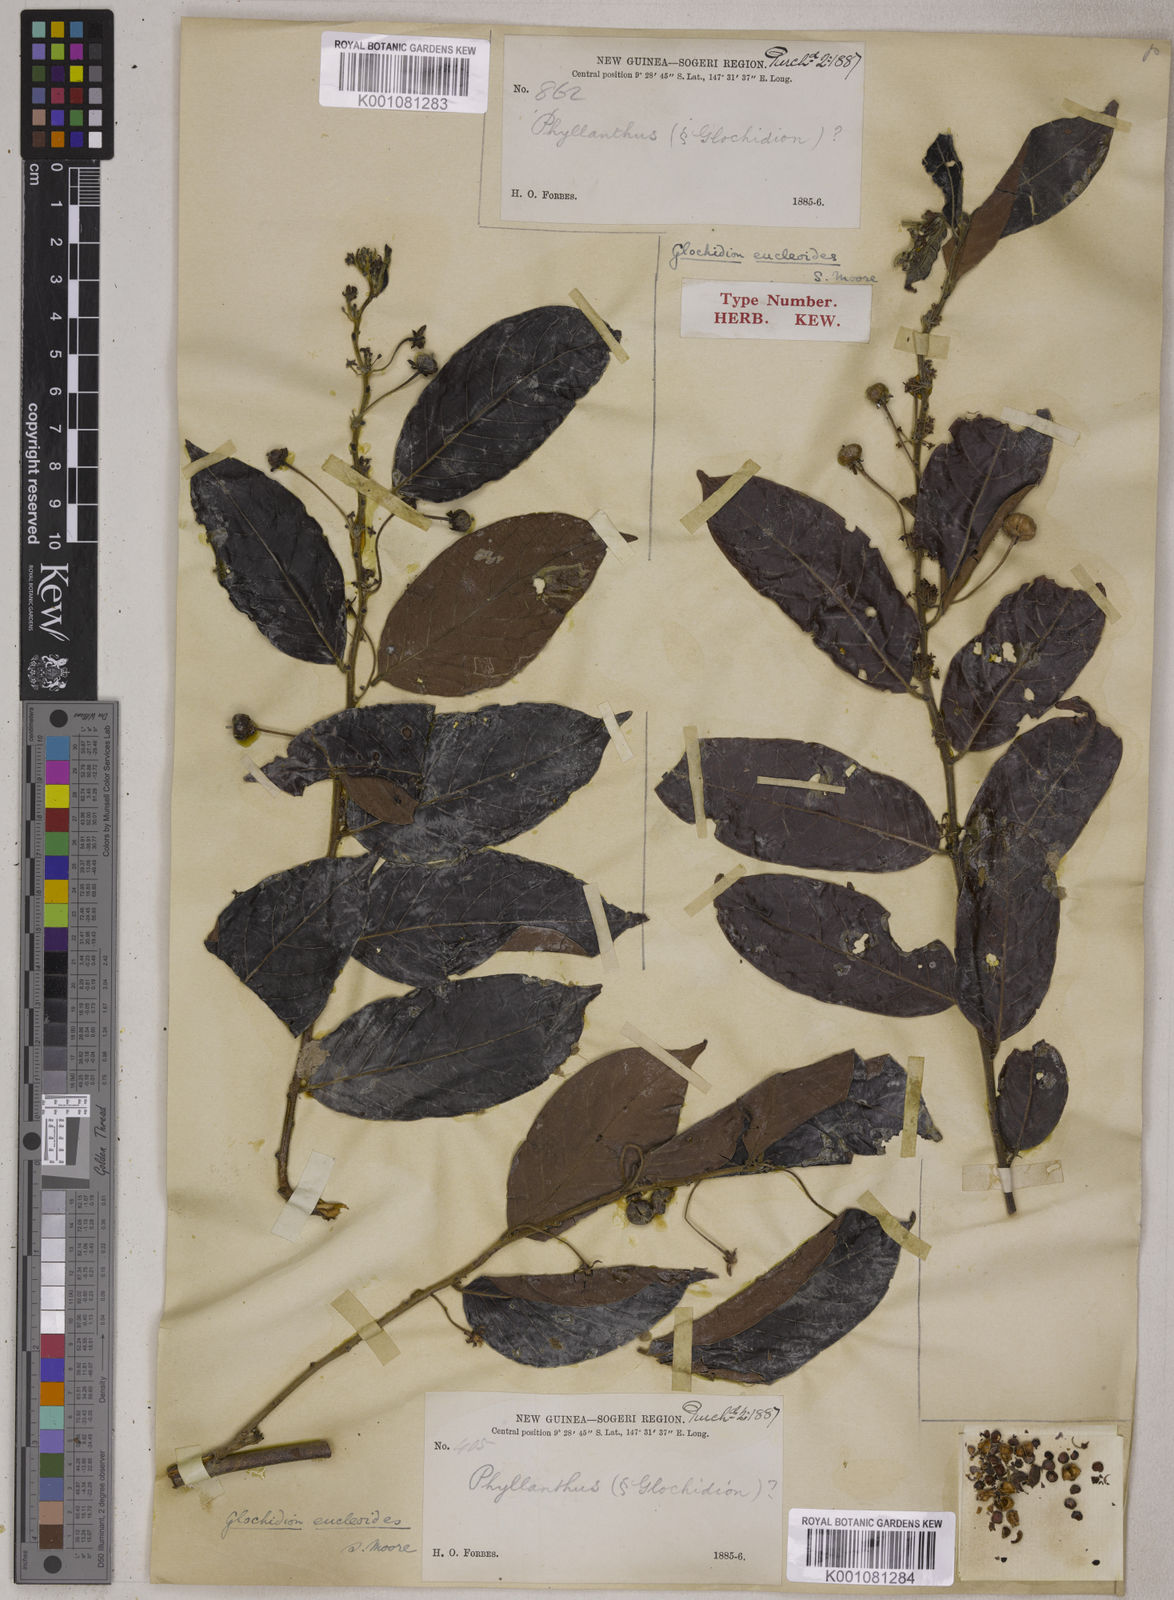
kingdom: Plantae
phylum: Tracheophyta
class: Magnoliopsida
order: Malpighiales
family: Phyllanthaceae
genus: Glochidion
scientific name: Glochidion eucleoides
